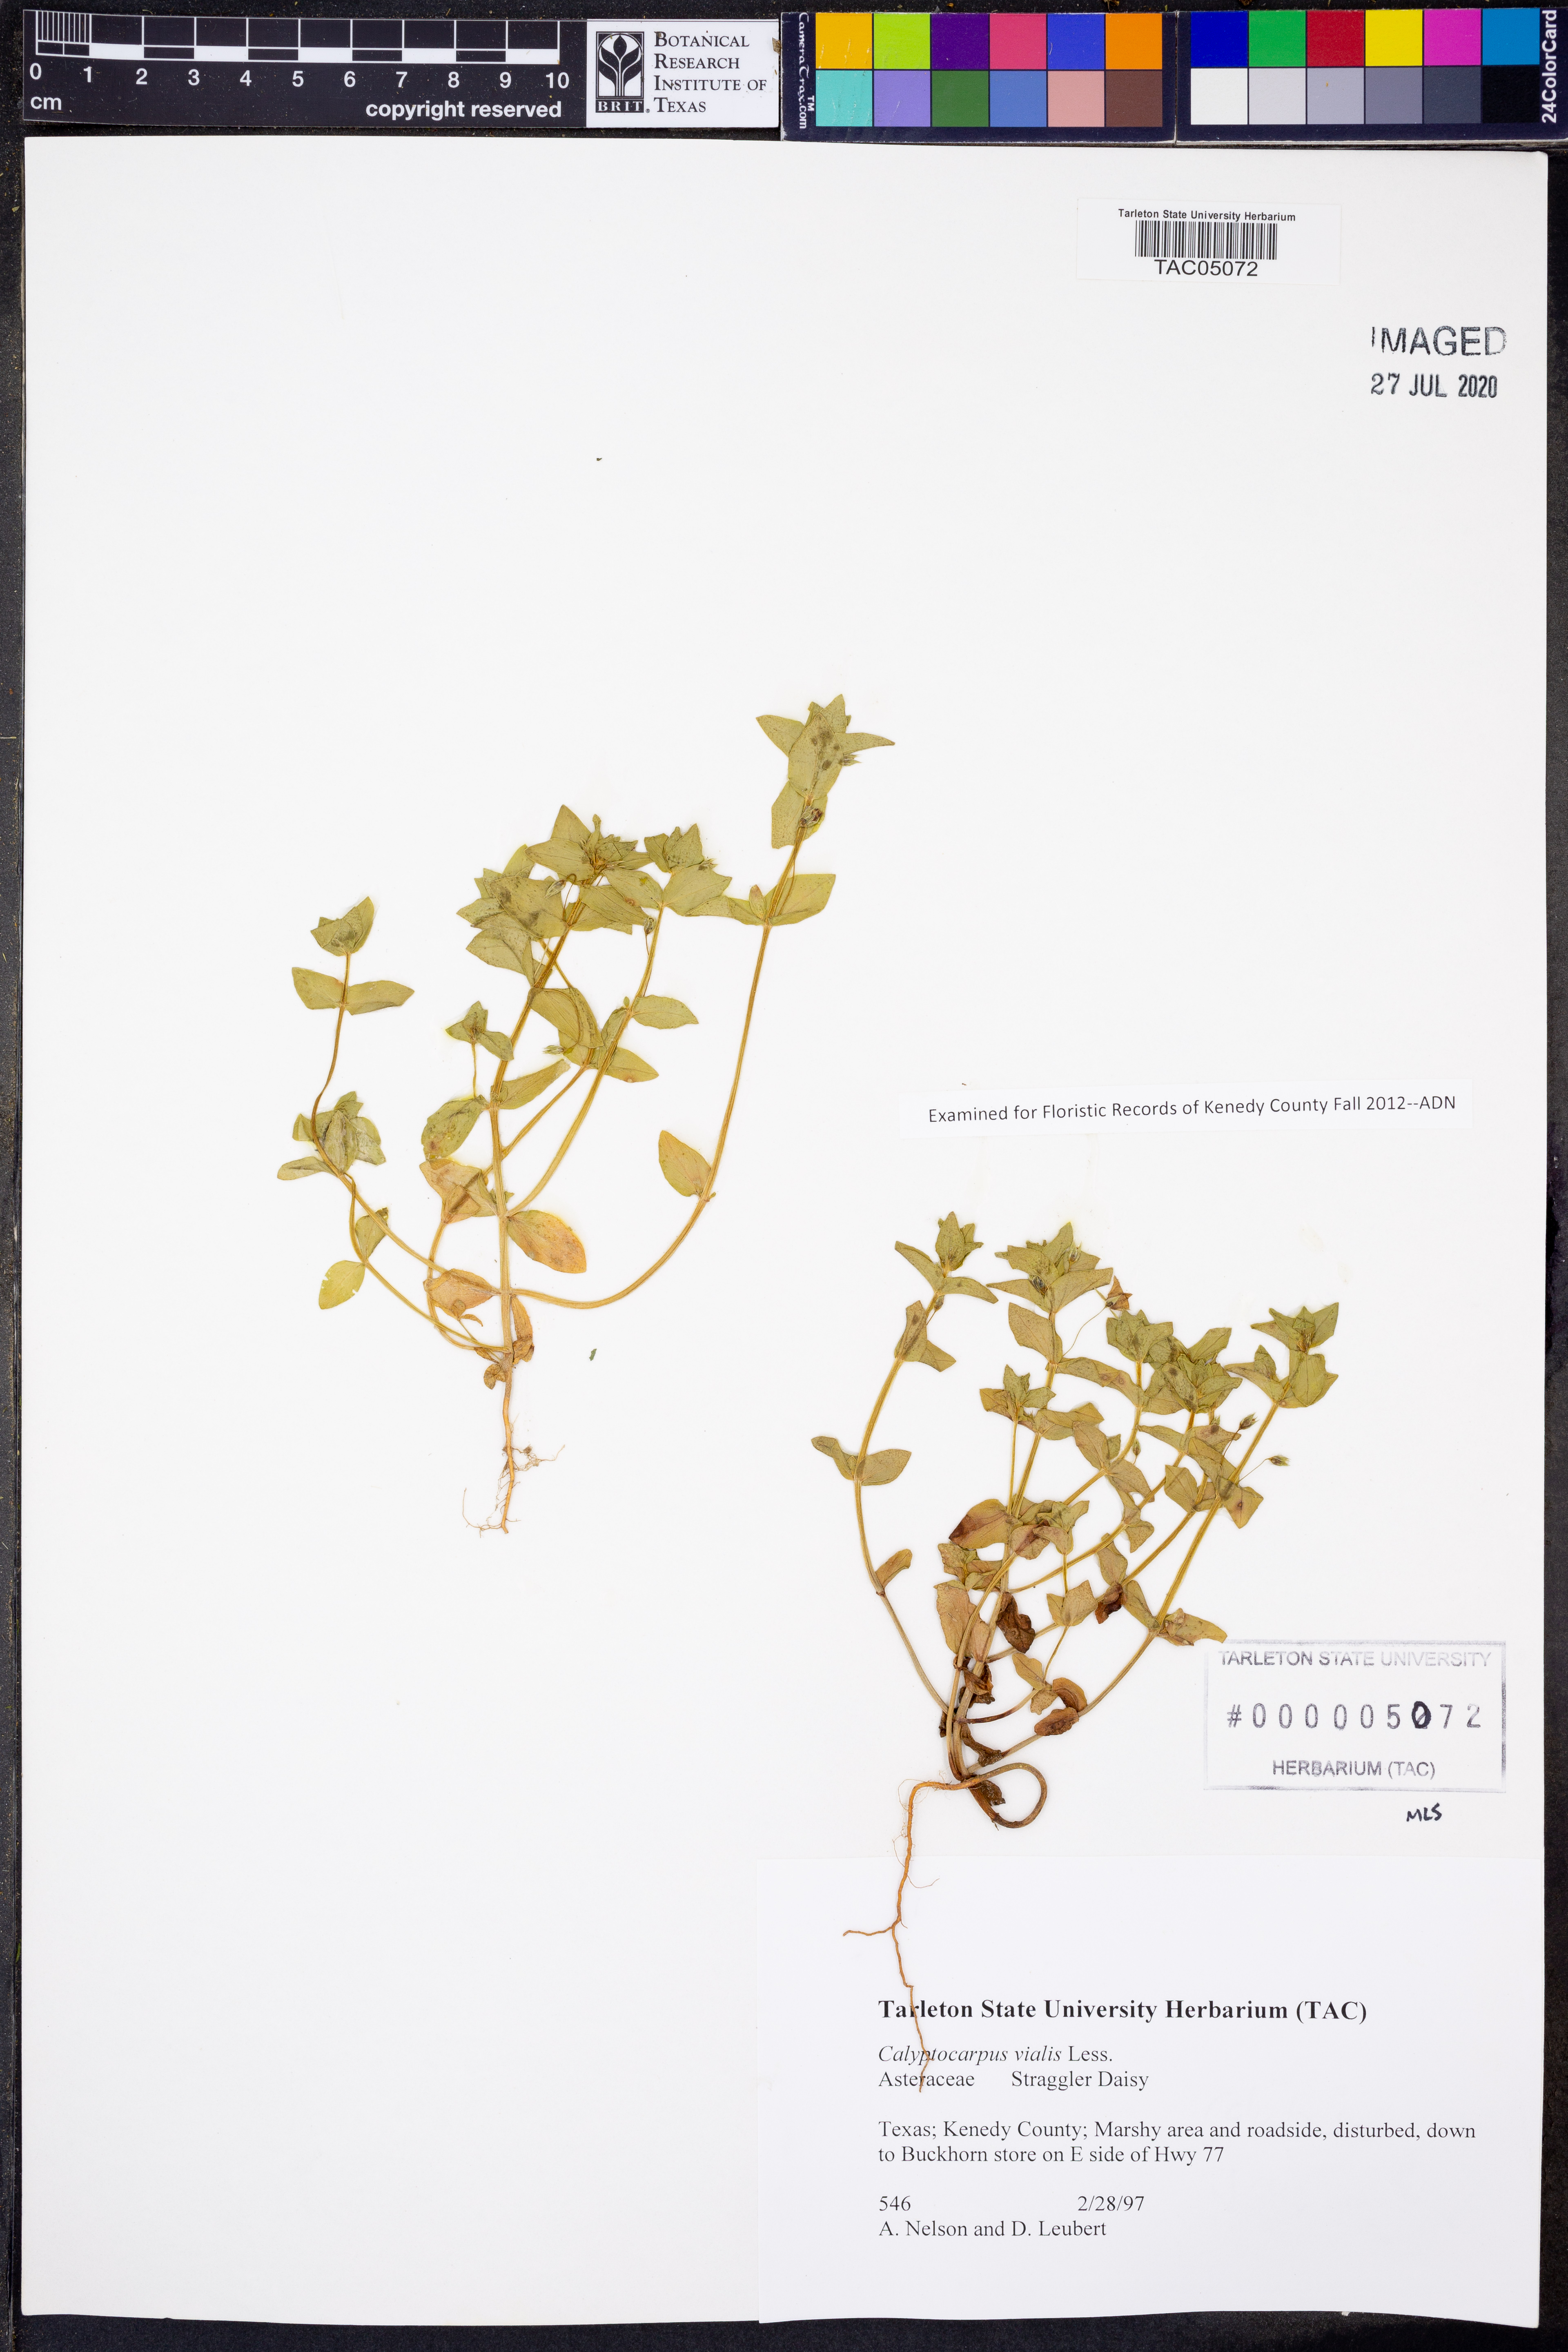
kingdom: Plantae
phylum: Tracheophyta
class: Magnoliopsida
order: Asterales
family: Asteraceae
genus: Calyptocarpus
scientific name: Calyptocarpus vialis
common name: Straggler daisy
